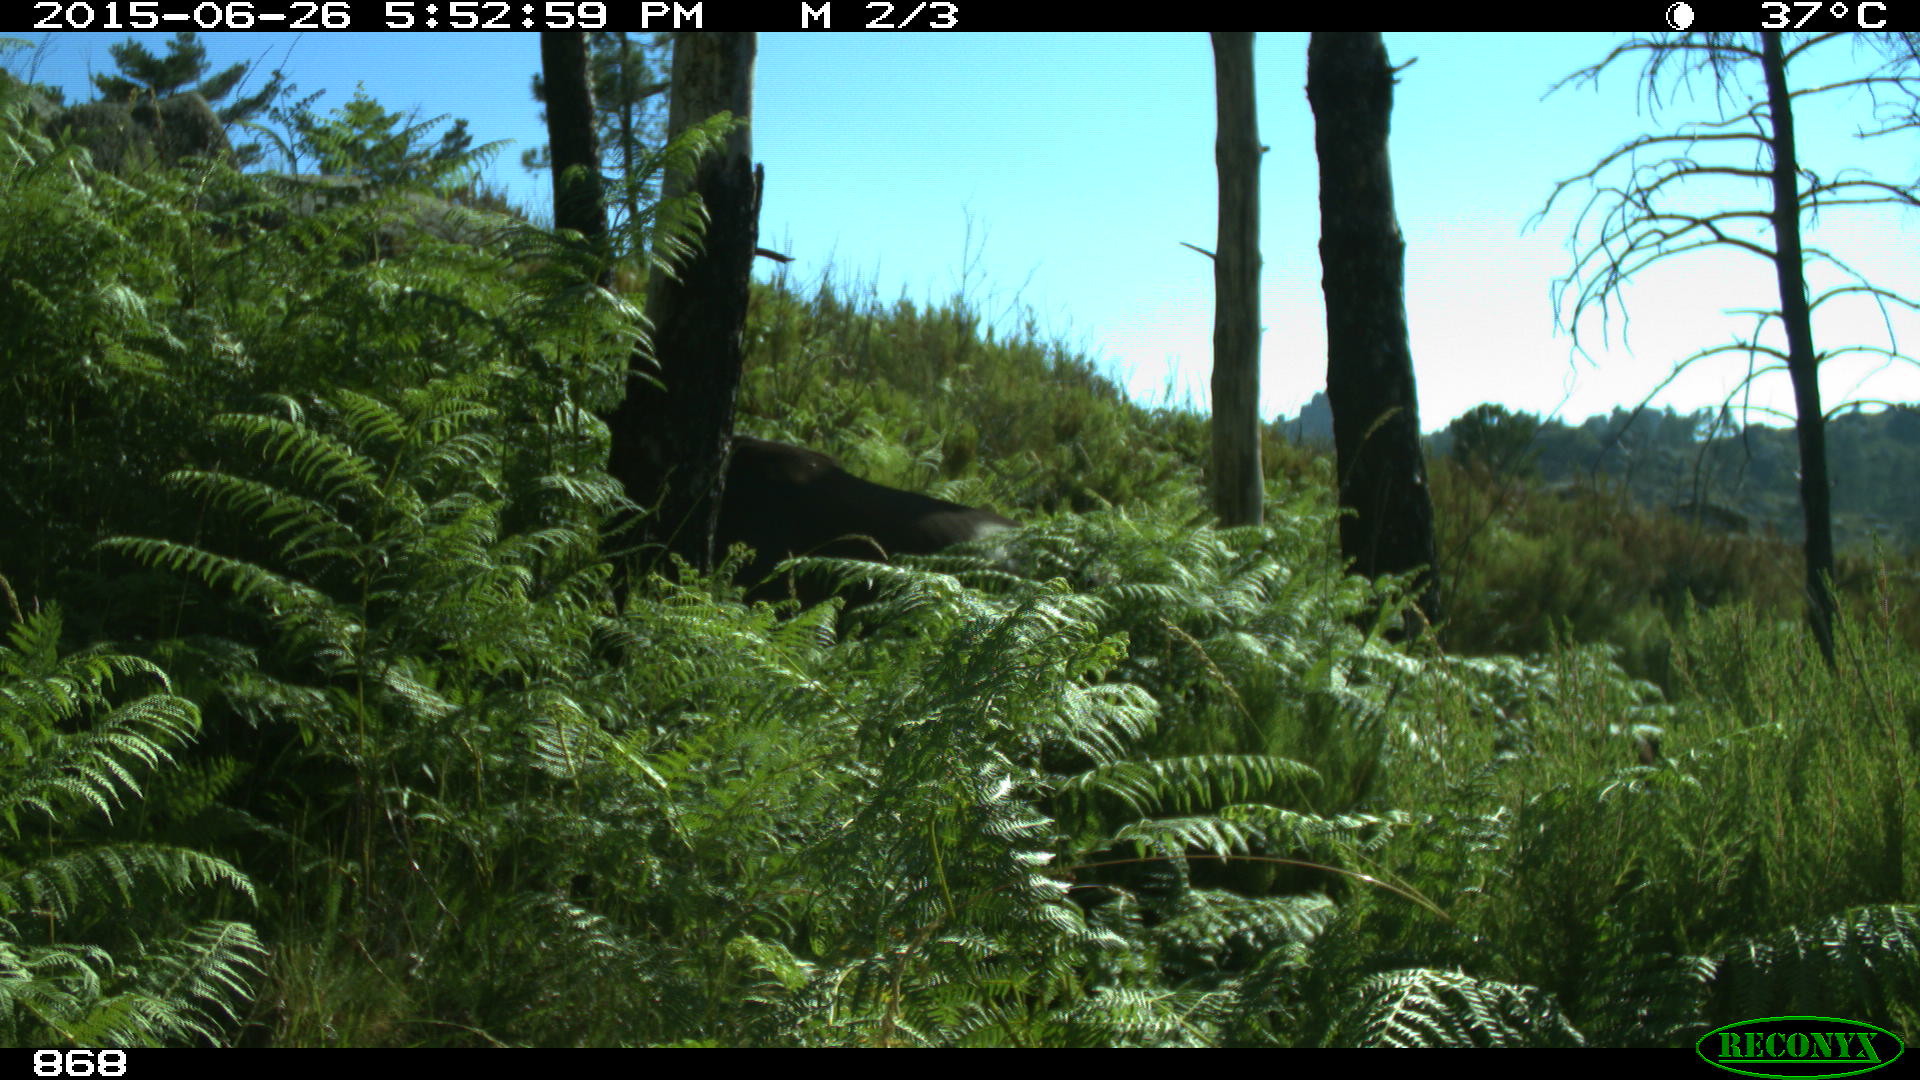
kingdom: Animalia
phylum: Chordata
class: Mammalia
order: Perissodactyla
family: Equidae
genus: Equus
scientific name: Equus caballus
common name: Horse
